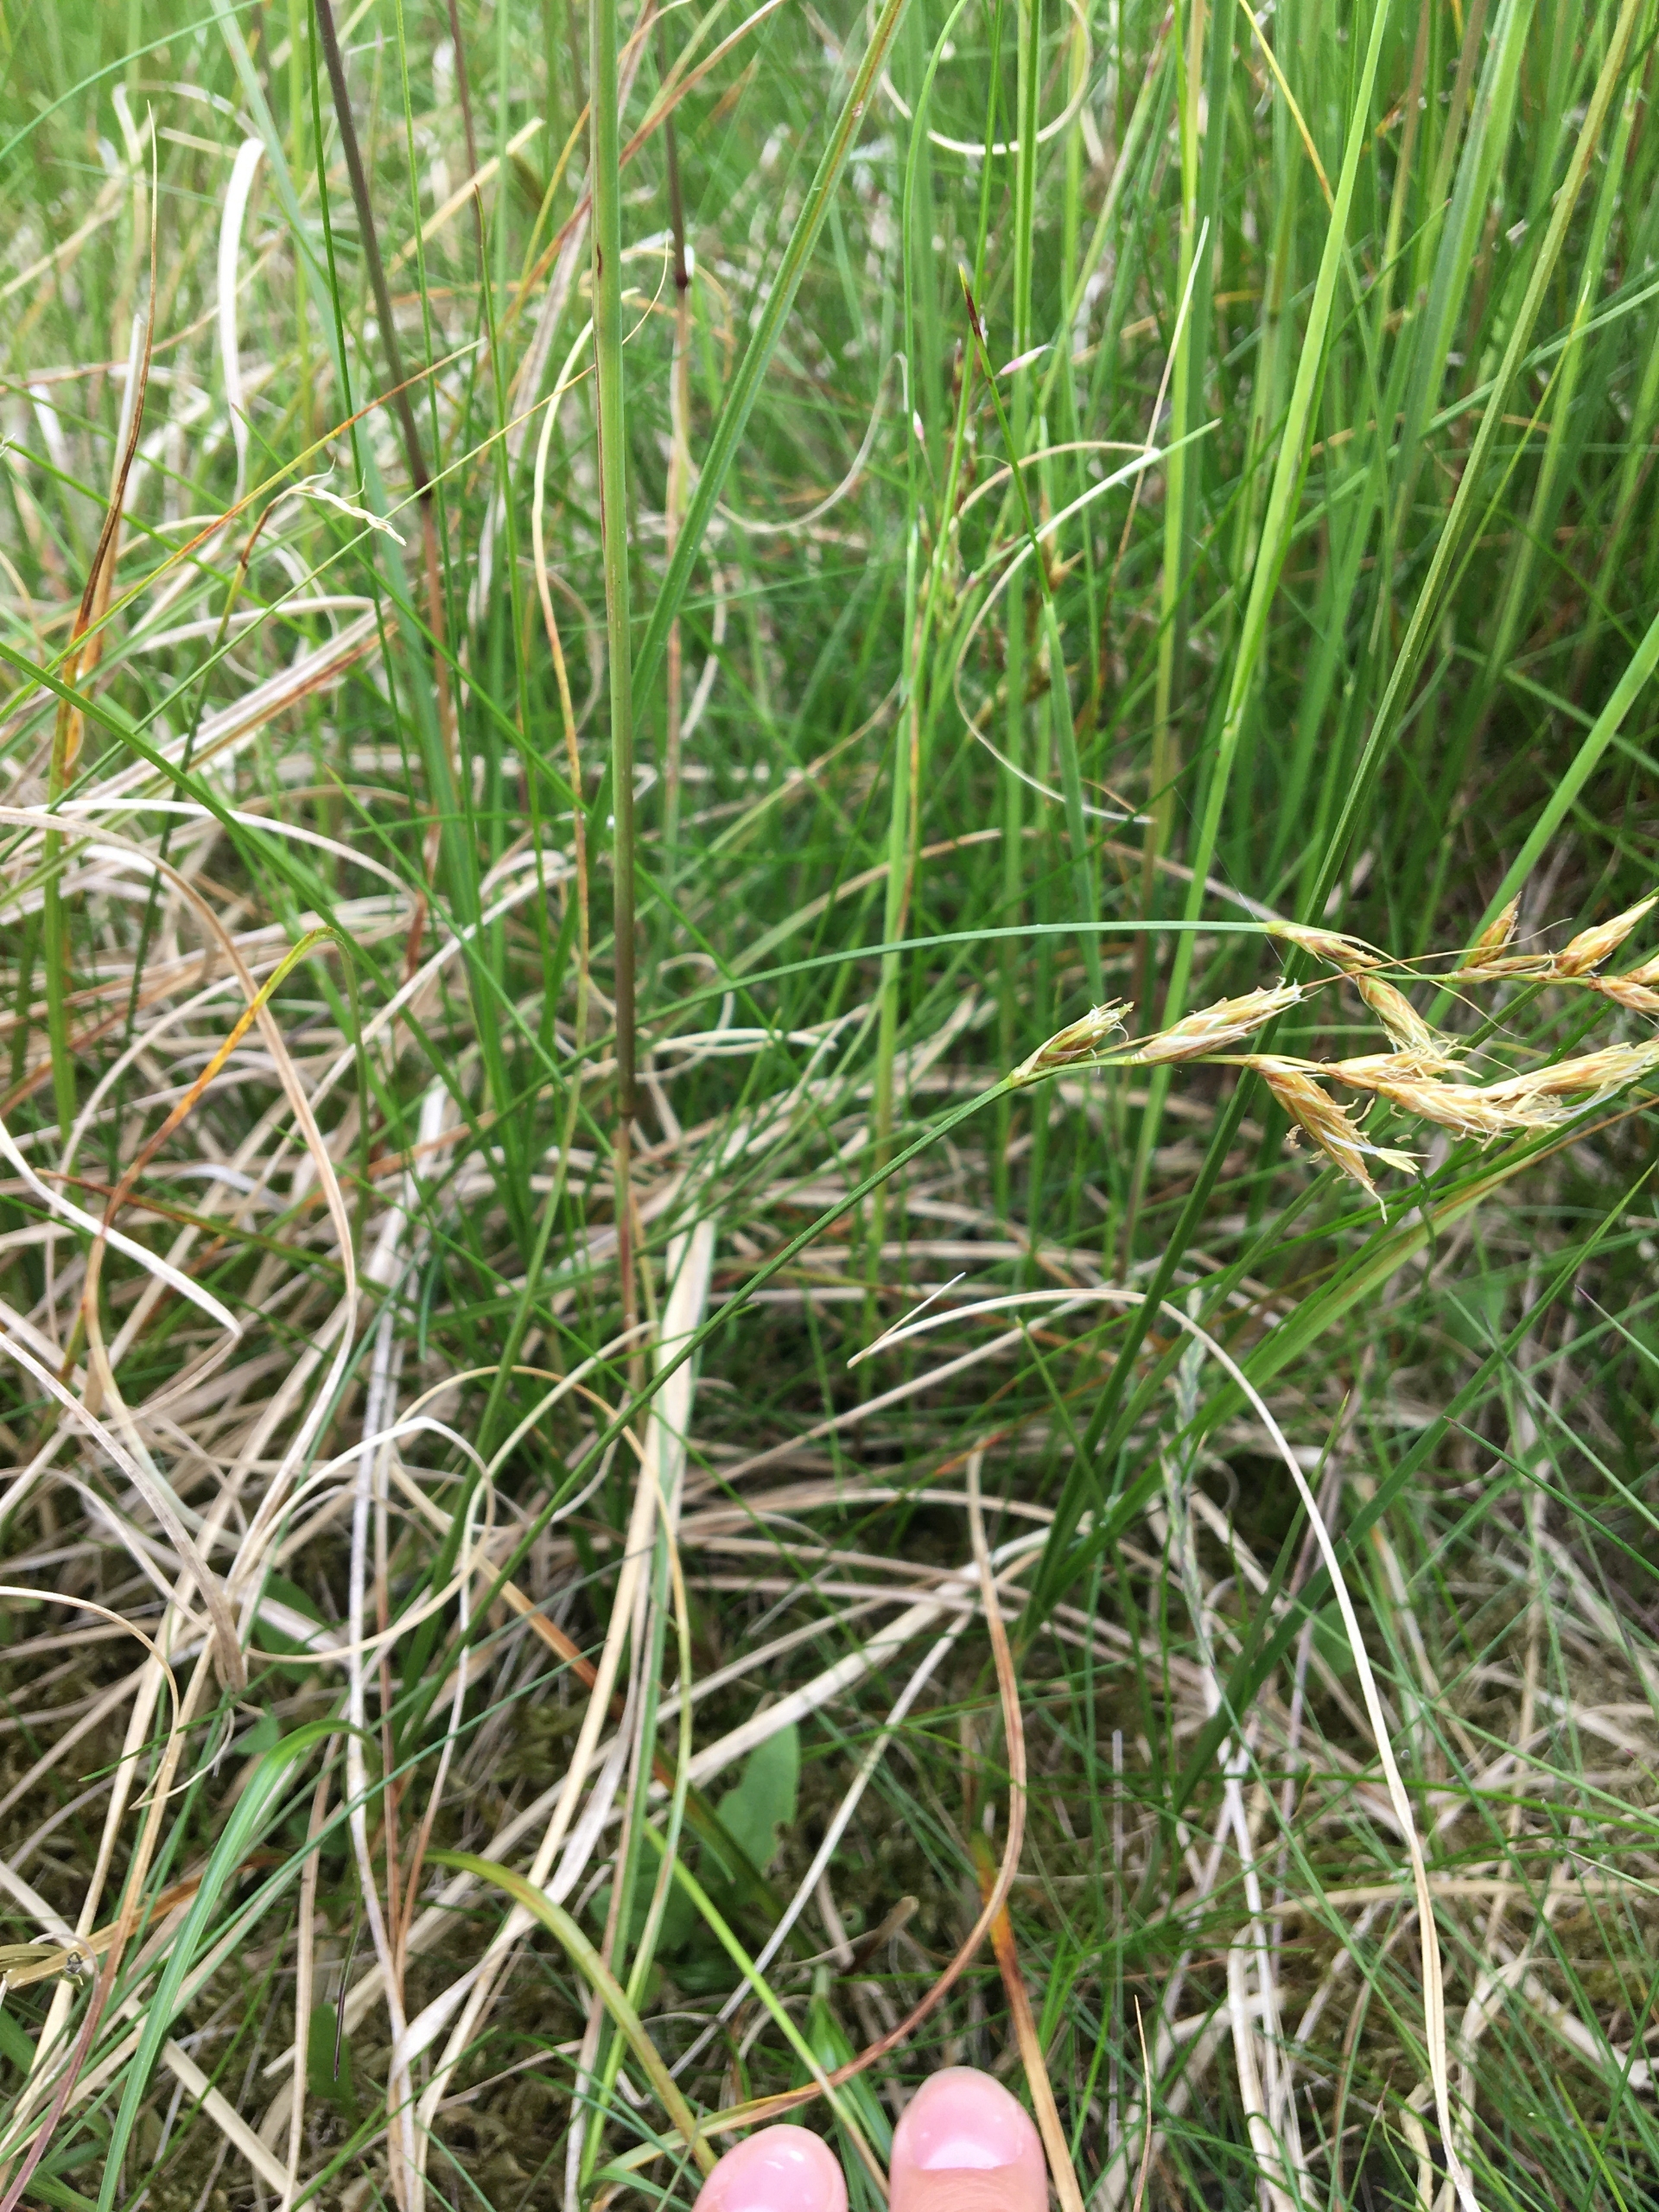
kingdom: Plantae
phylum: Tracheophyta
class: Liliopsida
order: Poales
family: Cyperaceae
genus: Carex
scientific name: Carex arenaria
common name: Sand-star
